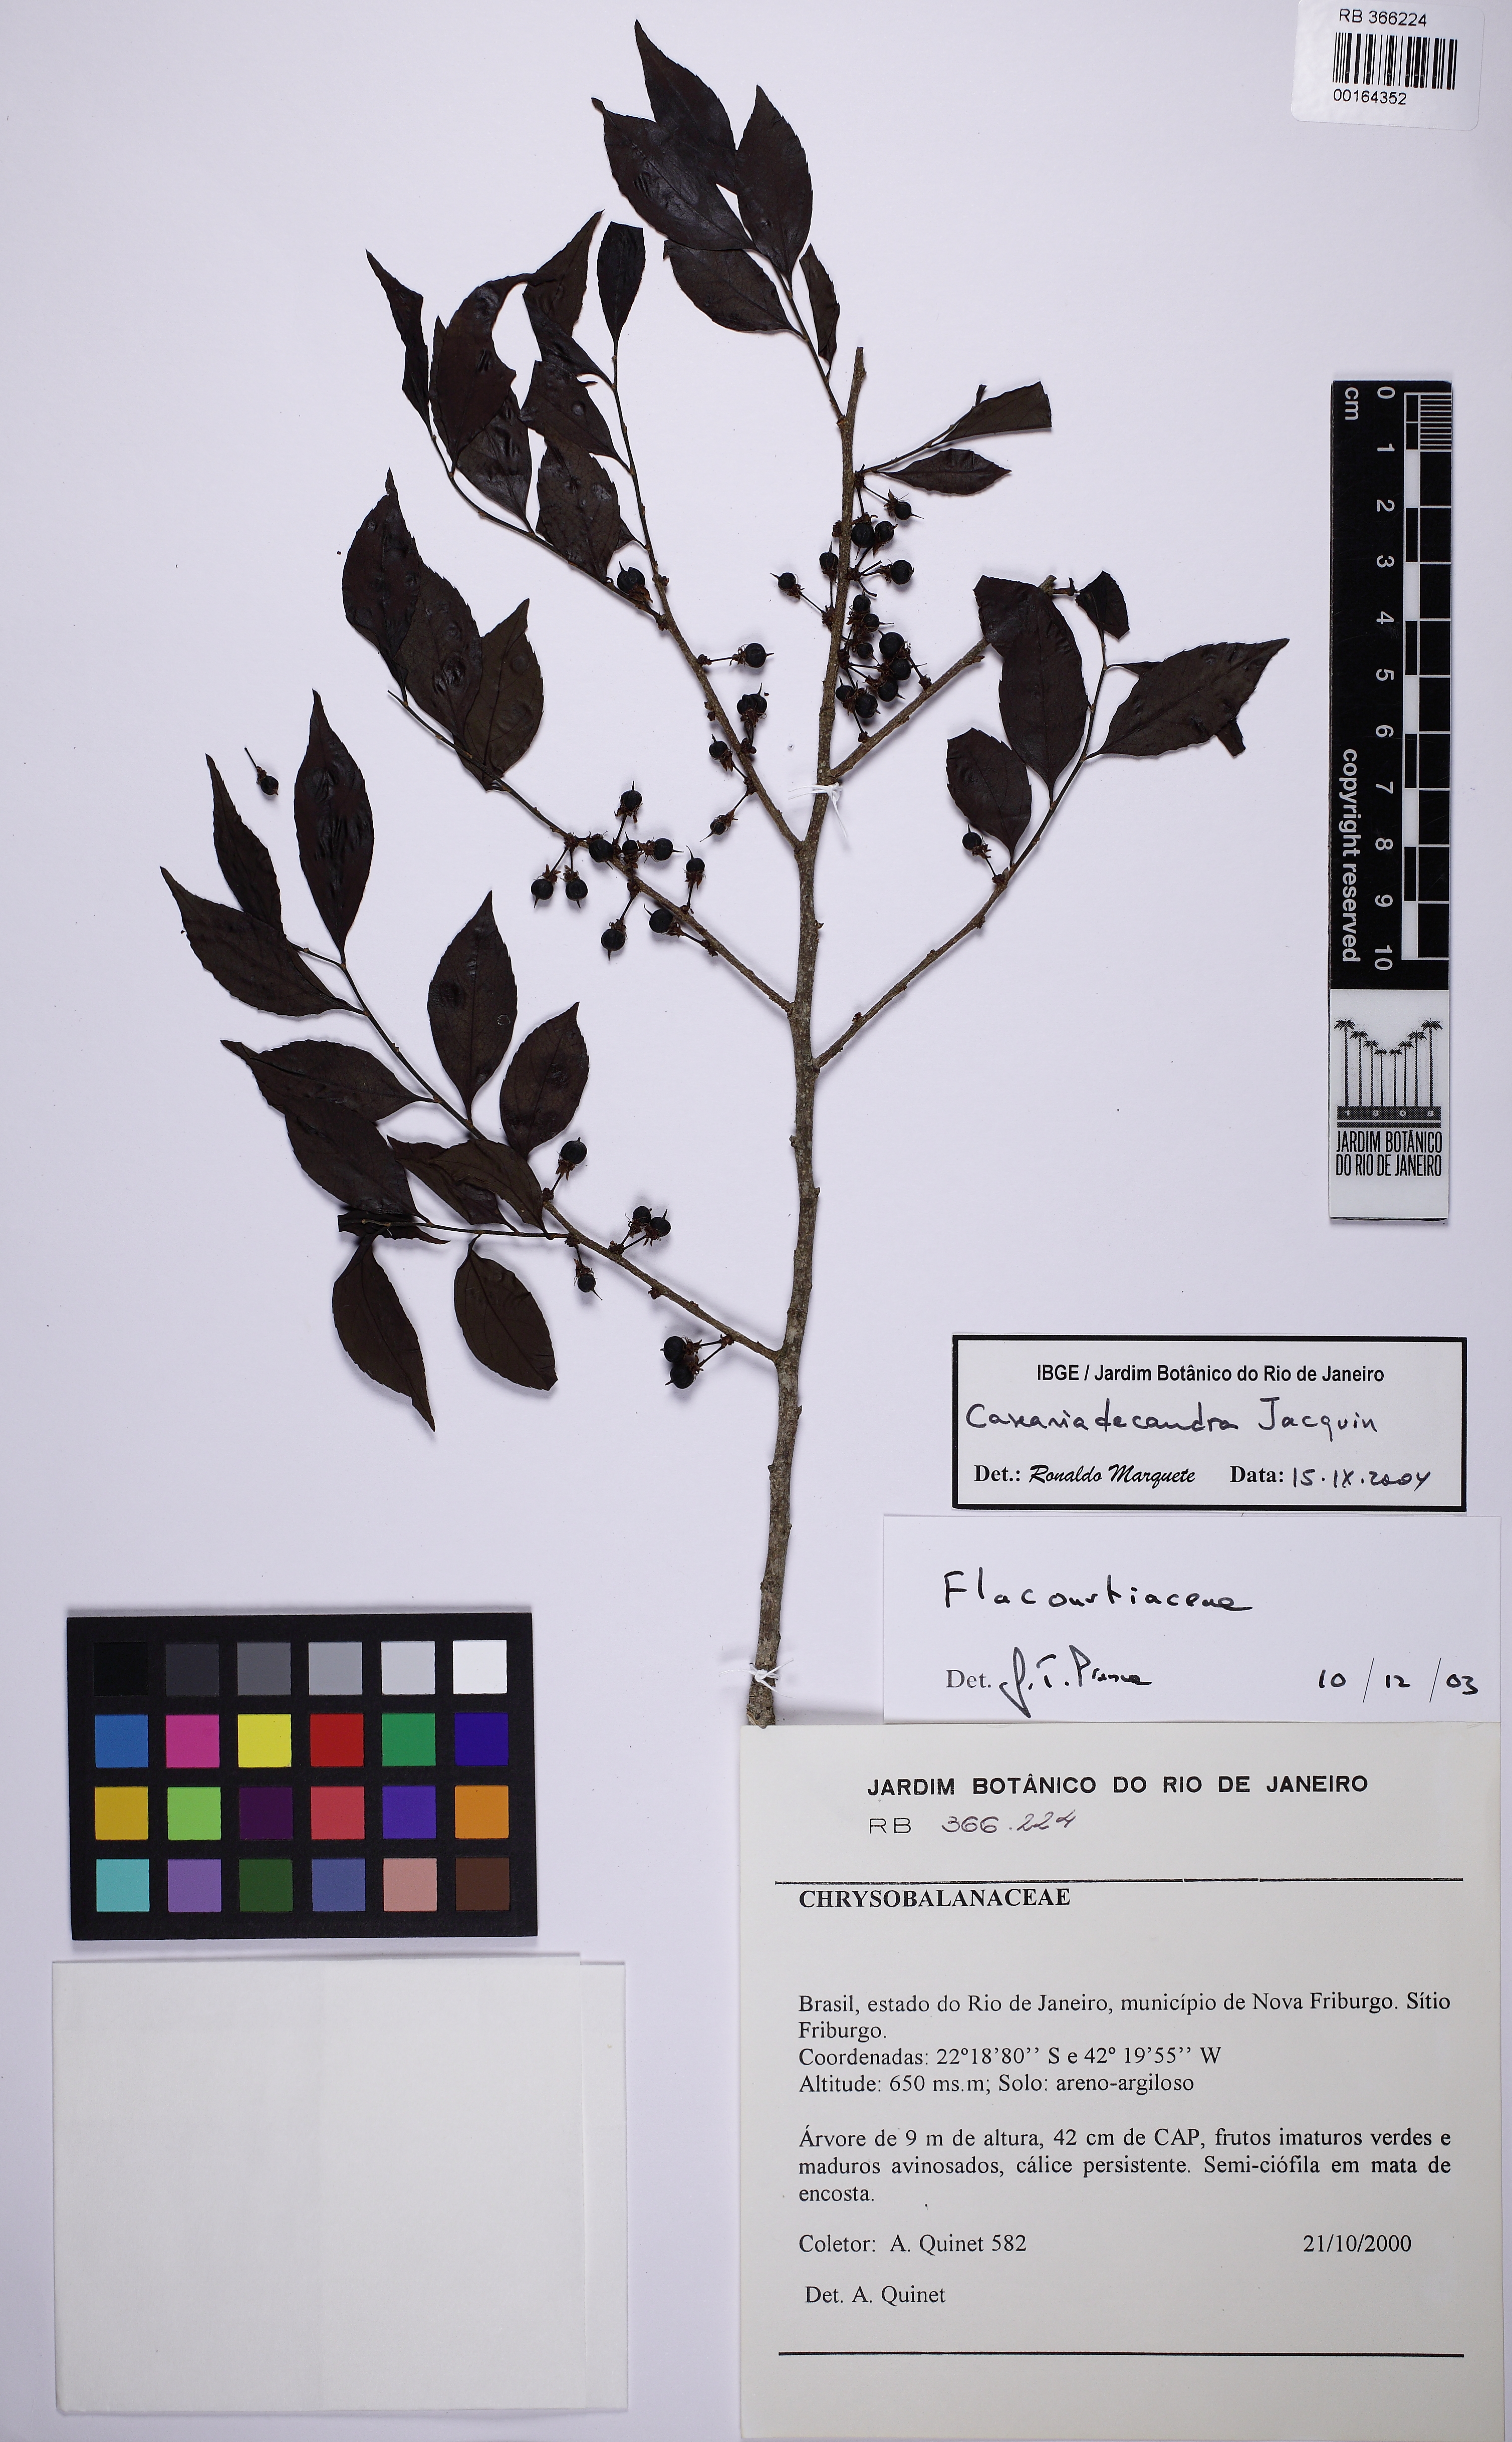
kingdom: Plantae
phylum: Tracheophyta
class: Magnoliopsida
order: Malpighiales
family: Salicaceae
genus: Casearia
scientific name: Casearia decandra
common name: Crack open
